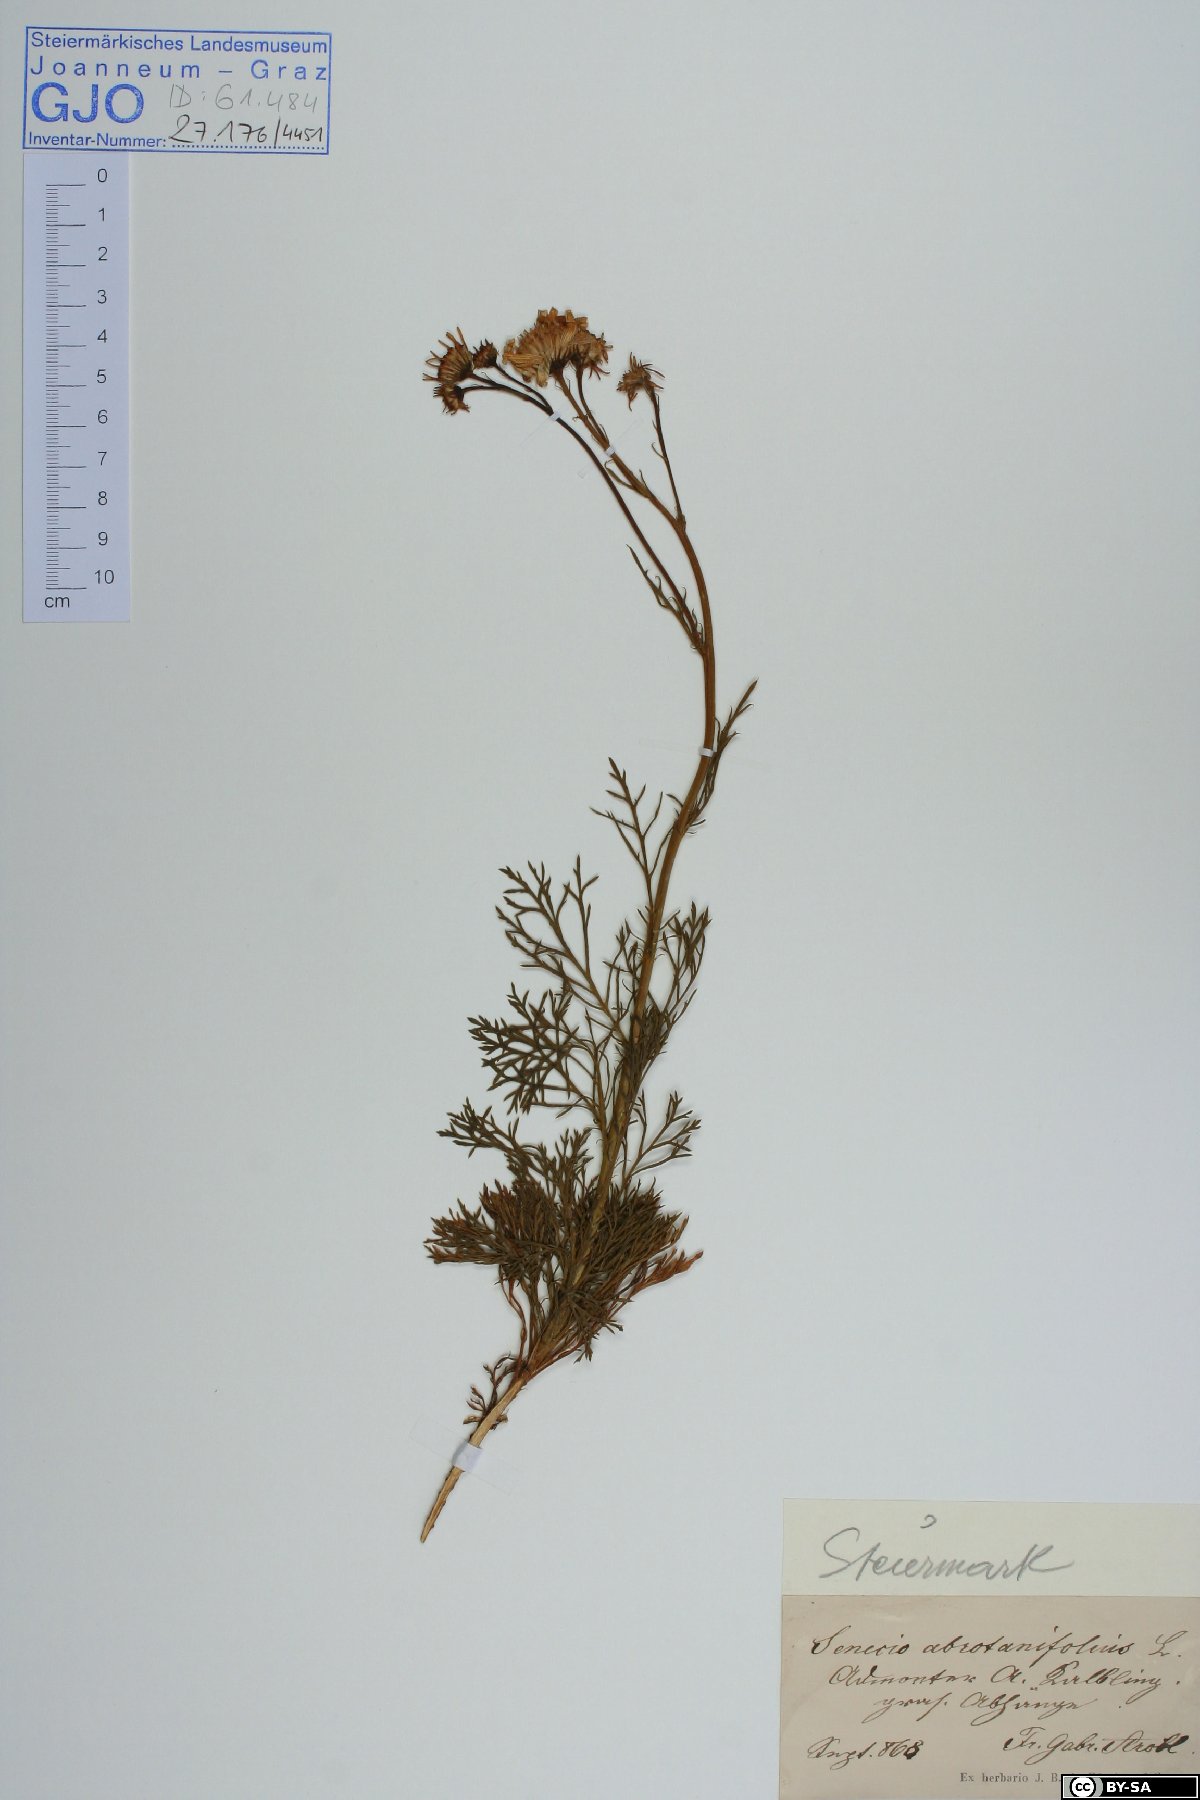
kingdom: Plantae
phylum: Tracheophyta
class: Magnoliopsida
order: Asterales
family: Asteraceae
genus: Jacobaea
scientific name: Jacobaea abrotanifolia
